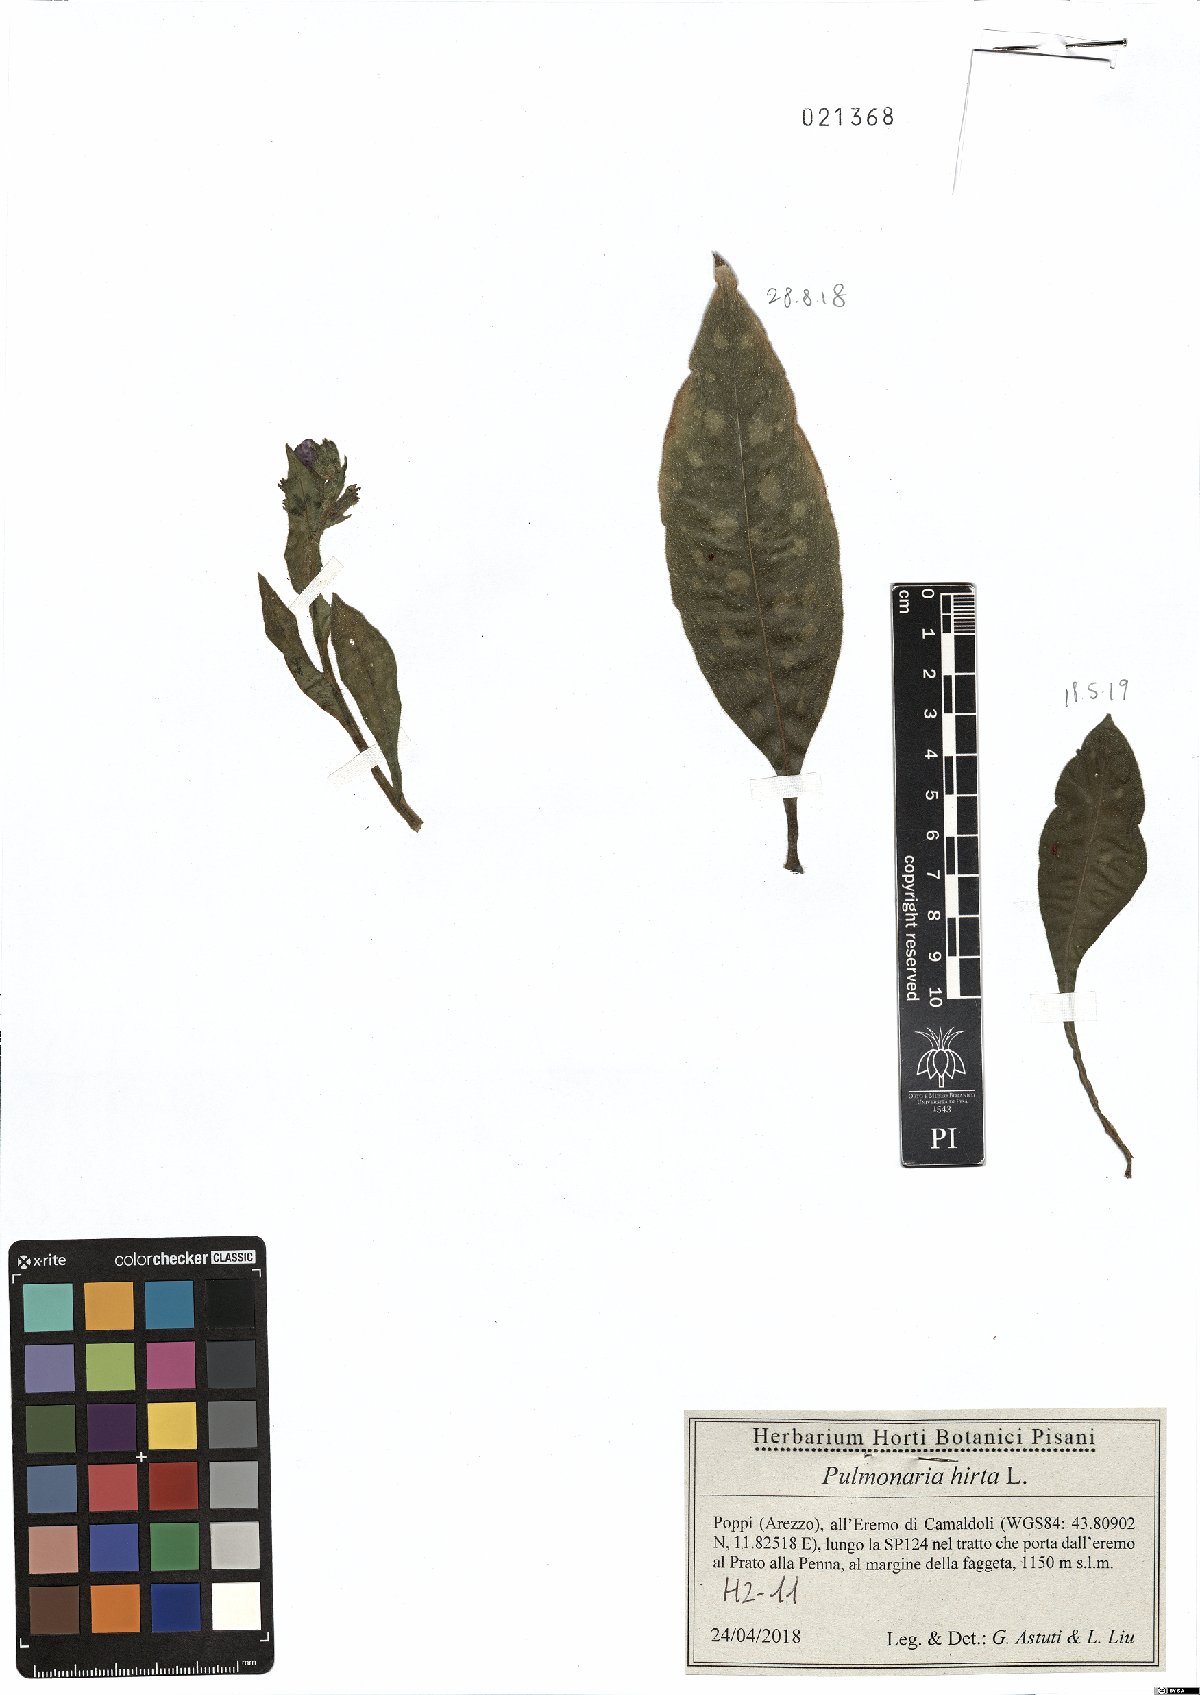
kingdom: Plantae
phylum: Tracheophyta
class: Magnoliopsida
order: Boraginales
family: Boraginaceae
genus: Pulmonaria
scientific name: Pulmonaria hirta
